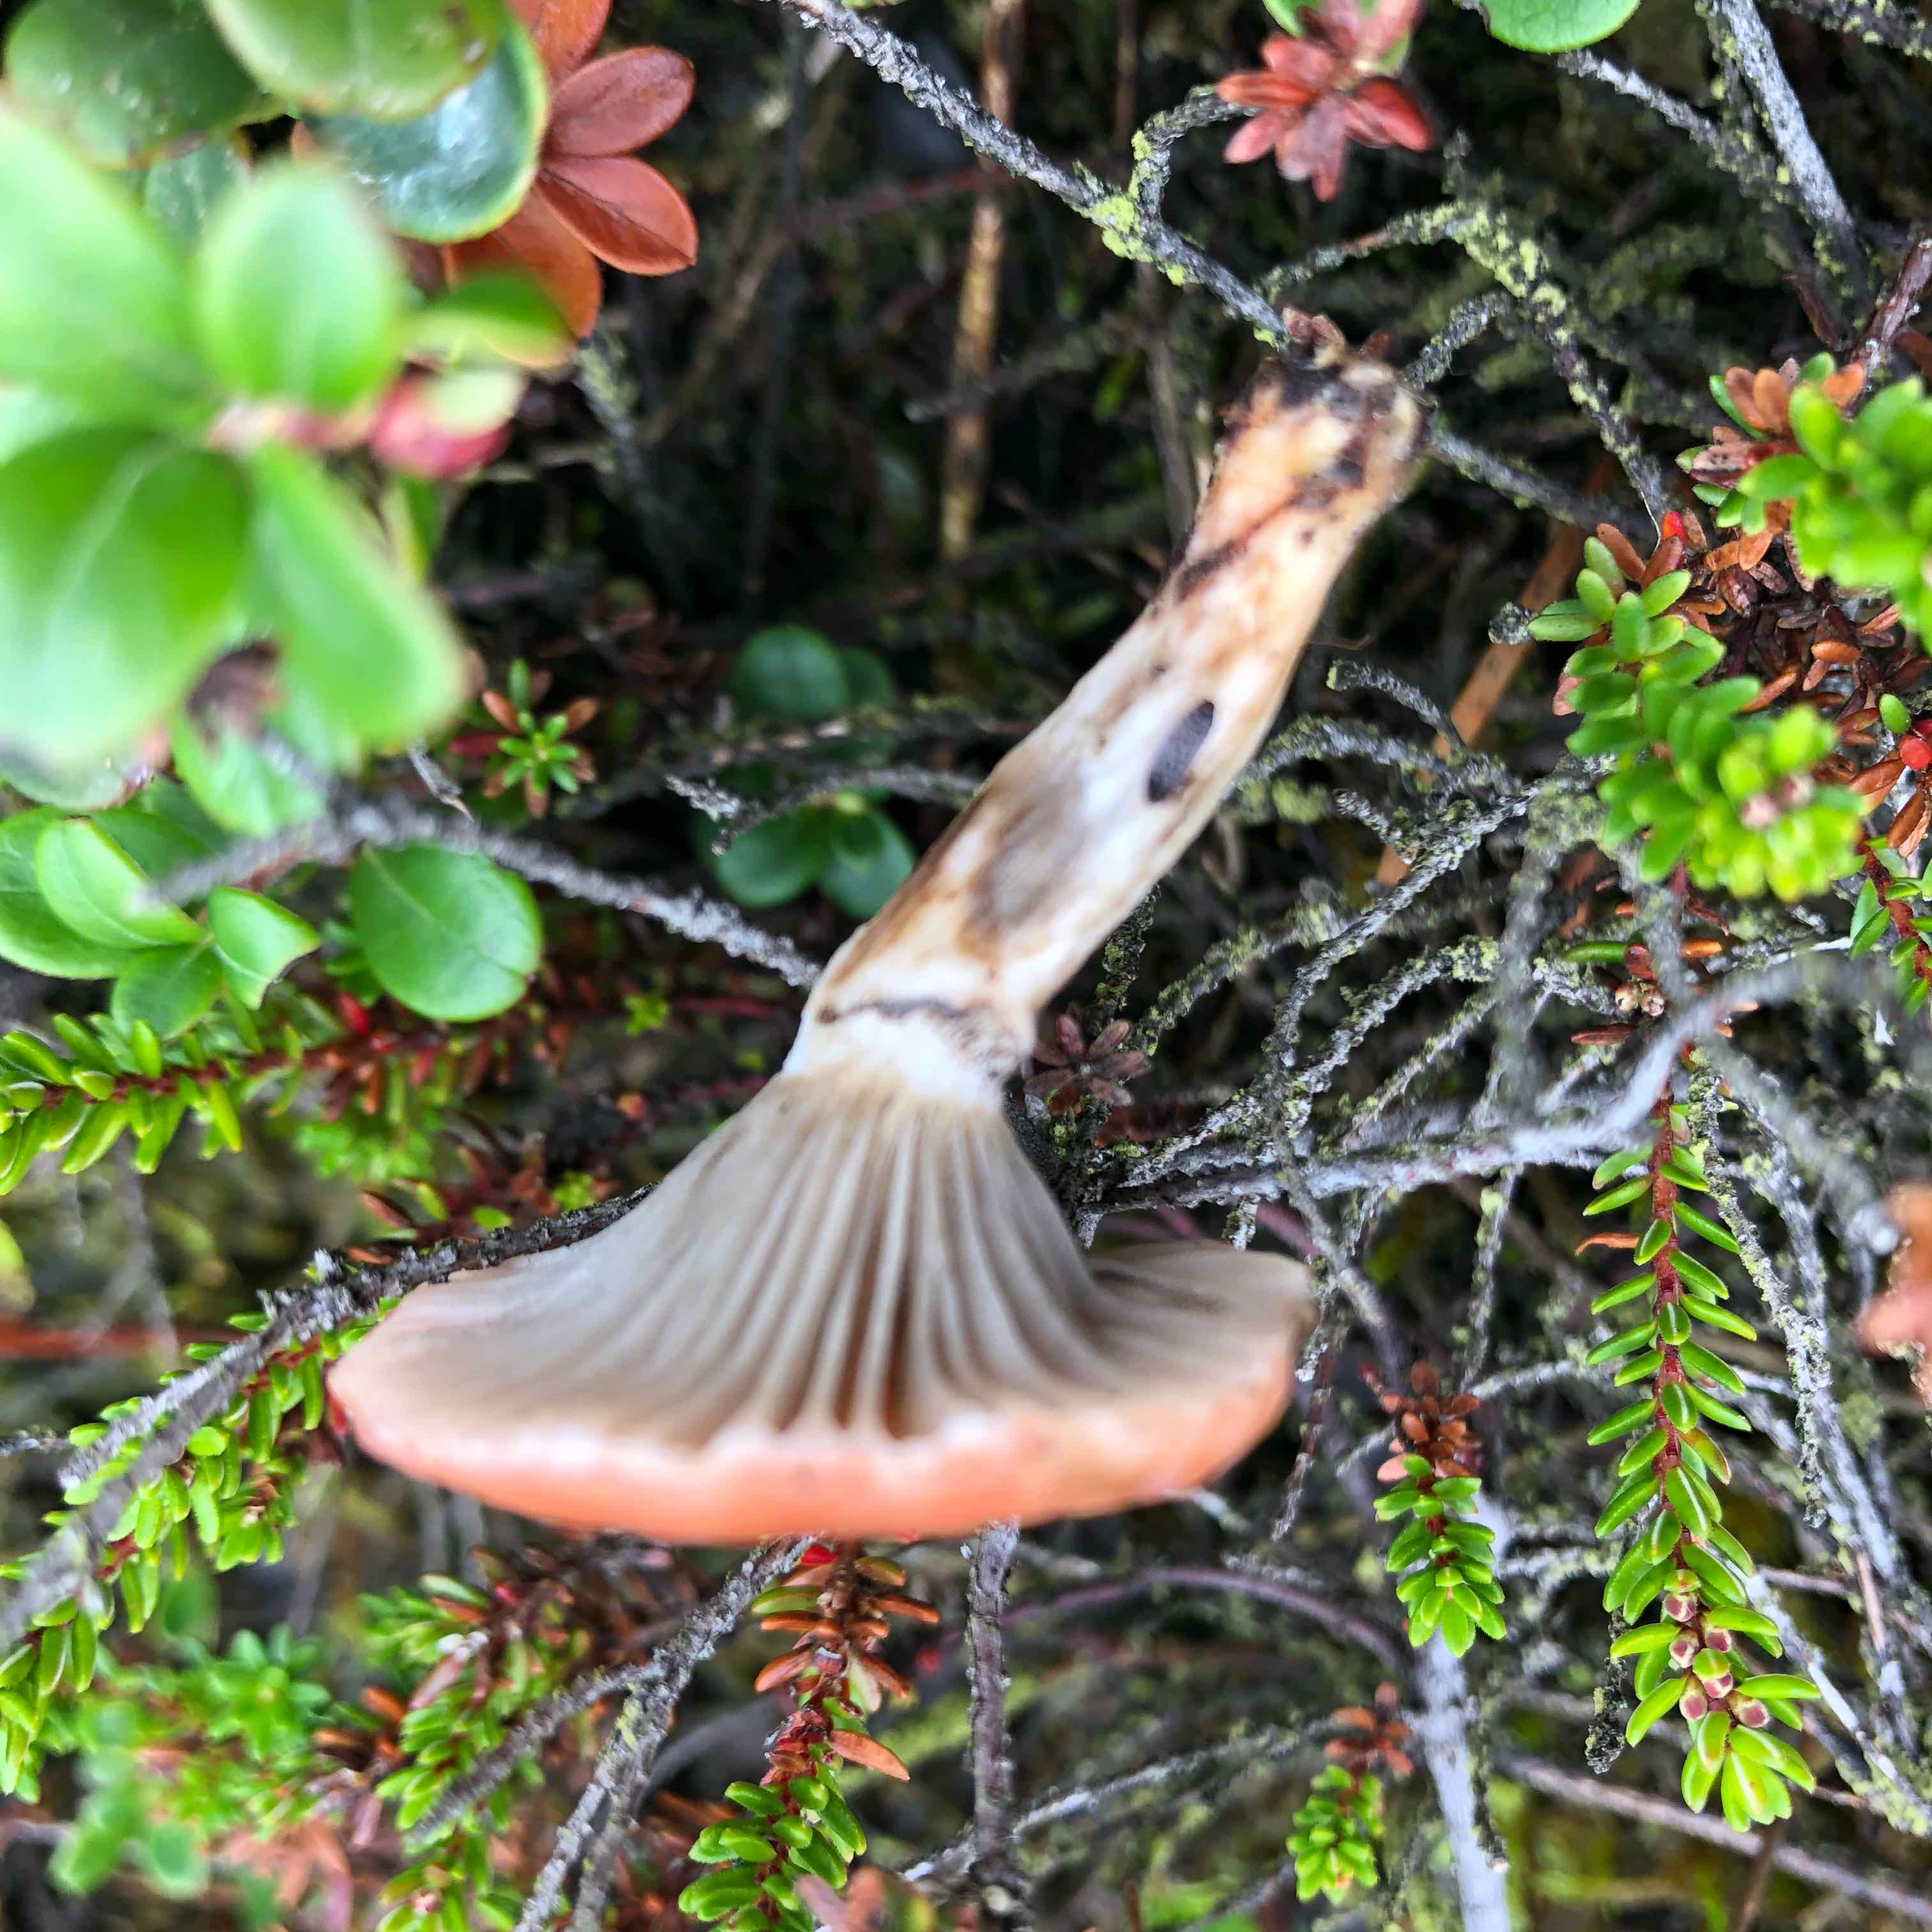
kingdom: Fungi
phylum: Basidiomycota
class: Agaricomycetes
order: Boletales
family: Gomphidiaceae
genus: Gomphidius
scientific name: Gomphidius roseus
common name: rosenrød slimslør
